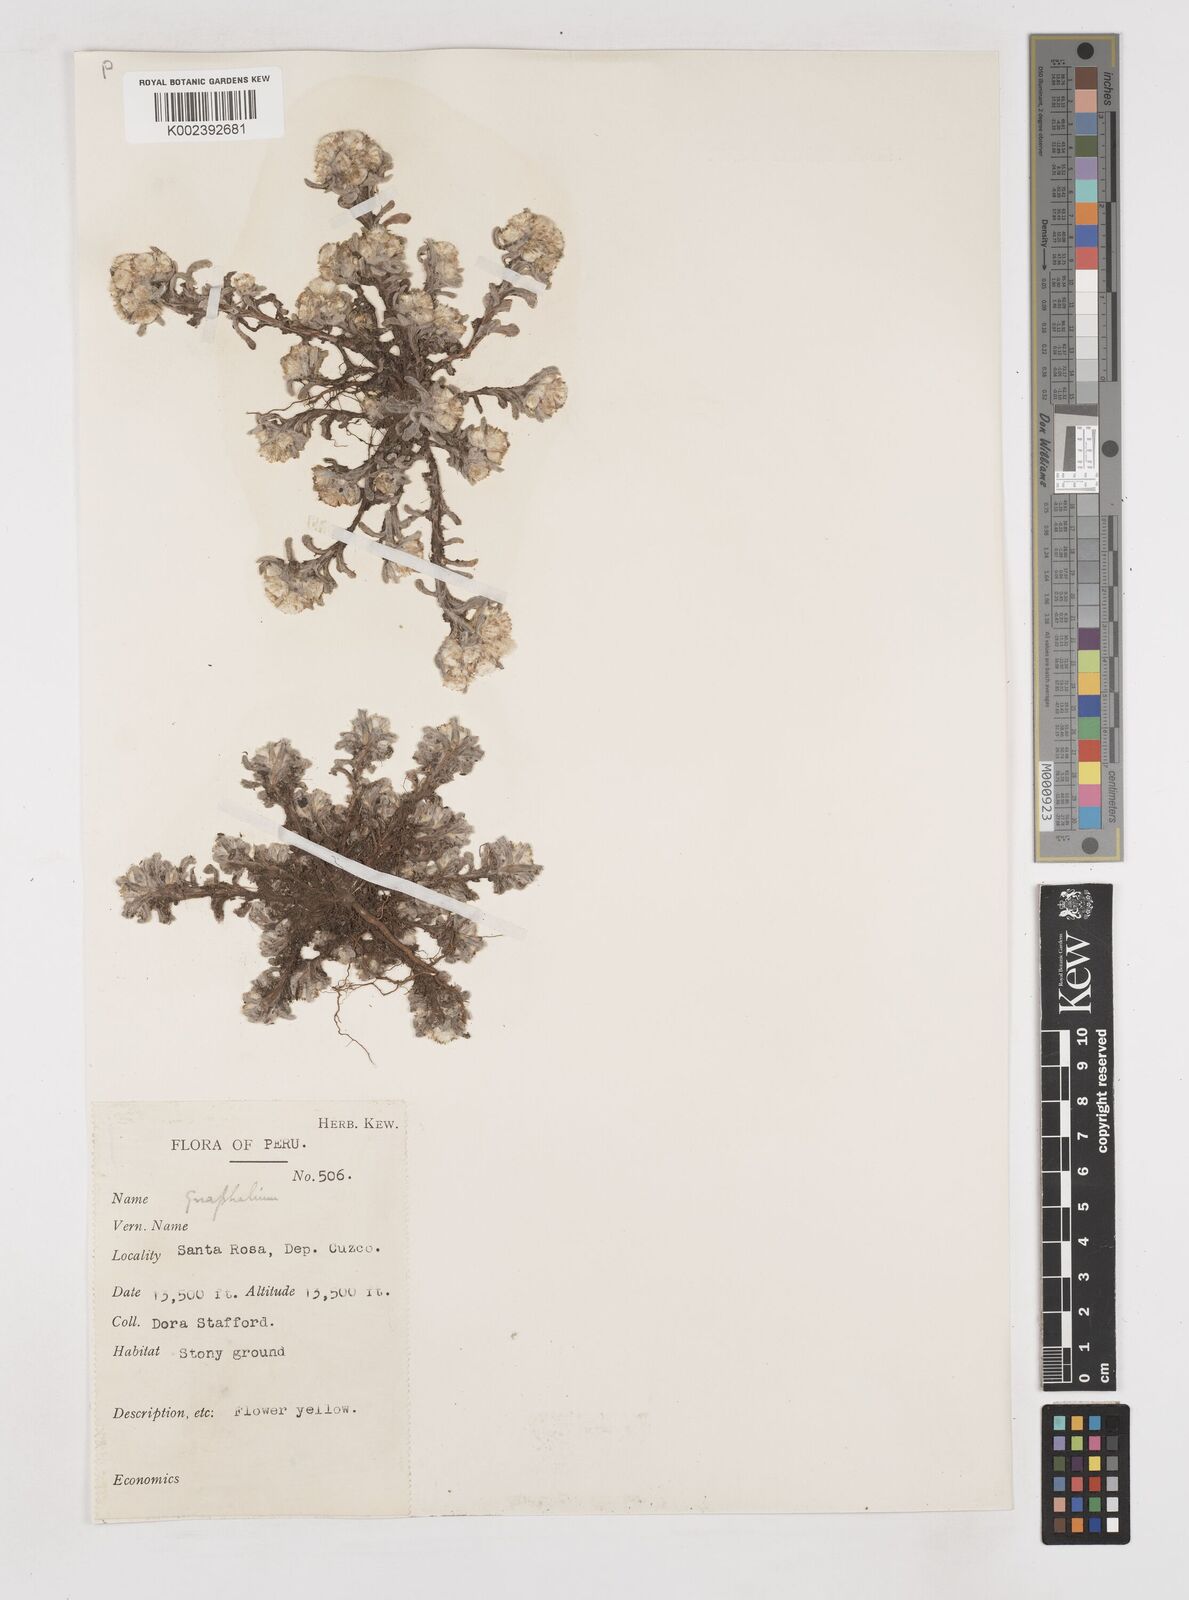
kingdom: Plantae
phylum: Tracheophyta
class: Magnoliopsida
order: Asterales
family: Asteraceae
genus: Gnaphalium
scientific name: Gnaphalium
